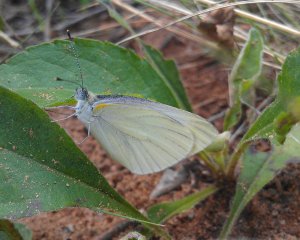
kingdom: Animalia
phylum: Arthropoda
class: Insecta
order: Lepidoptera
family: Pieridae
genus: Pieris
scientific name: Pieris oleracea
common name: Mustard White
